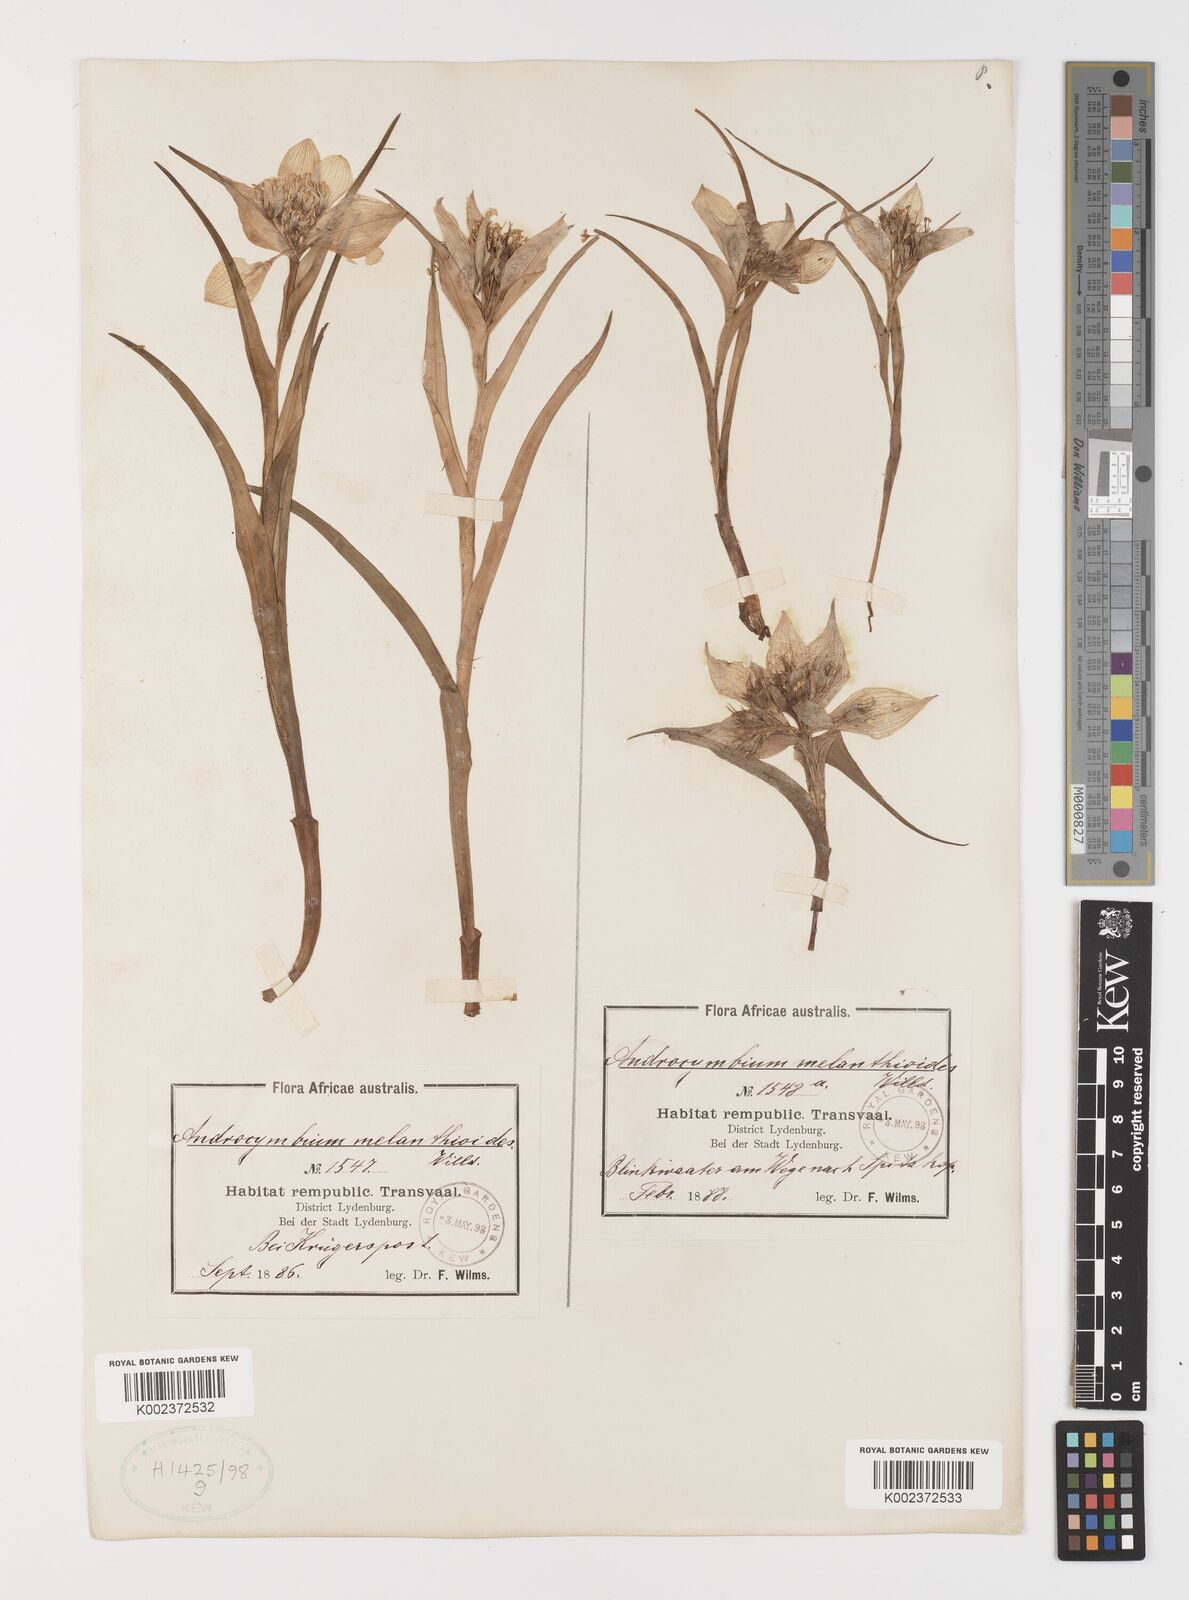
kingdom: Plantae
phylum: Tracheophyta
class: Liliopsida
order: Liliales
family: Colchicaceae
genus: Colchicum
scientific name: Colchicum melanthioides
